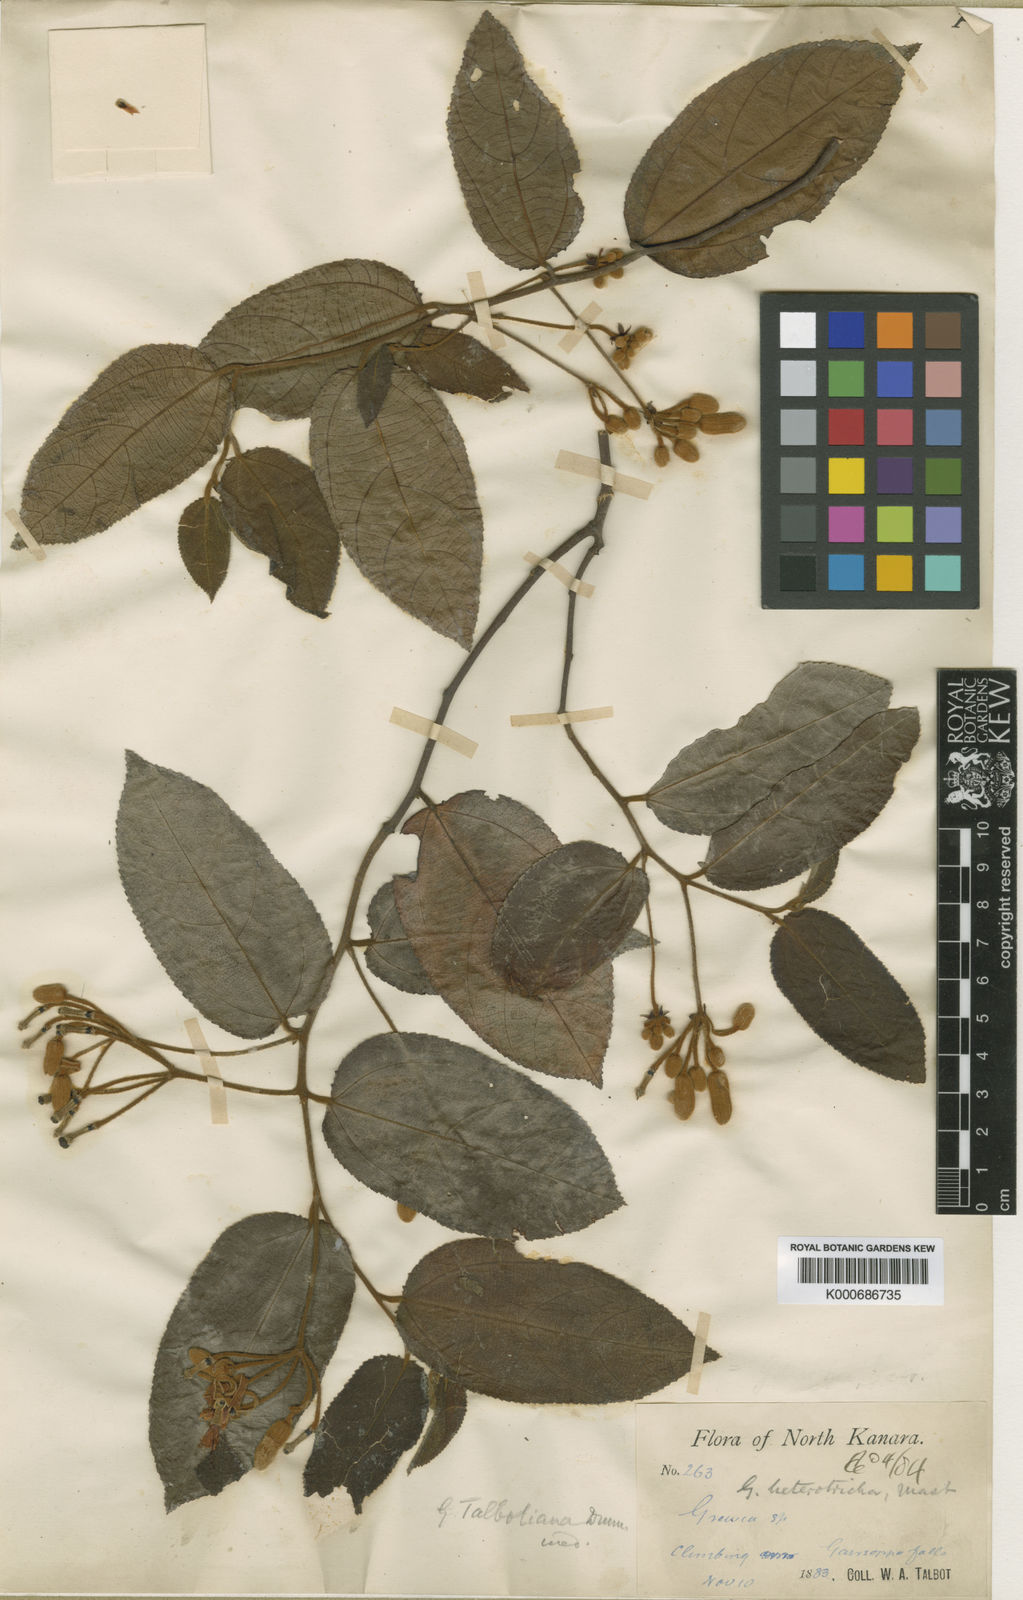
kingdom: Plantae
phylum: Tracheophyta
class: Magnoliopsida
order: Malvales
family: Malvaceae
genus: Grewia
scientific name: Grewia
